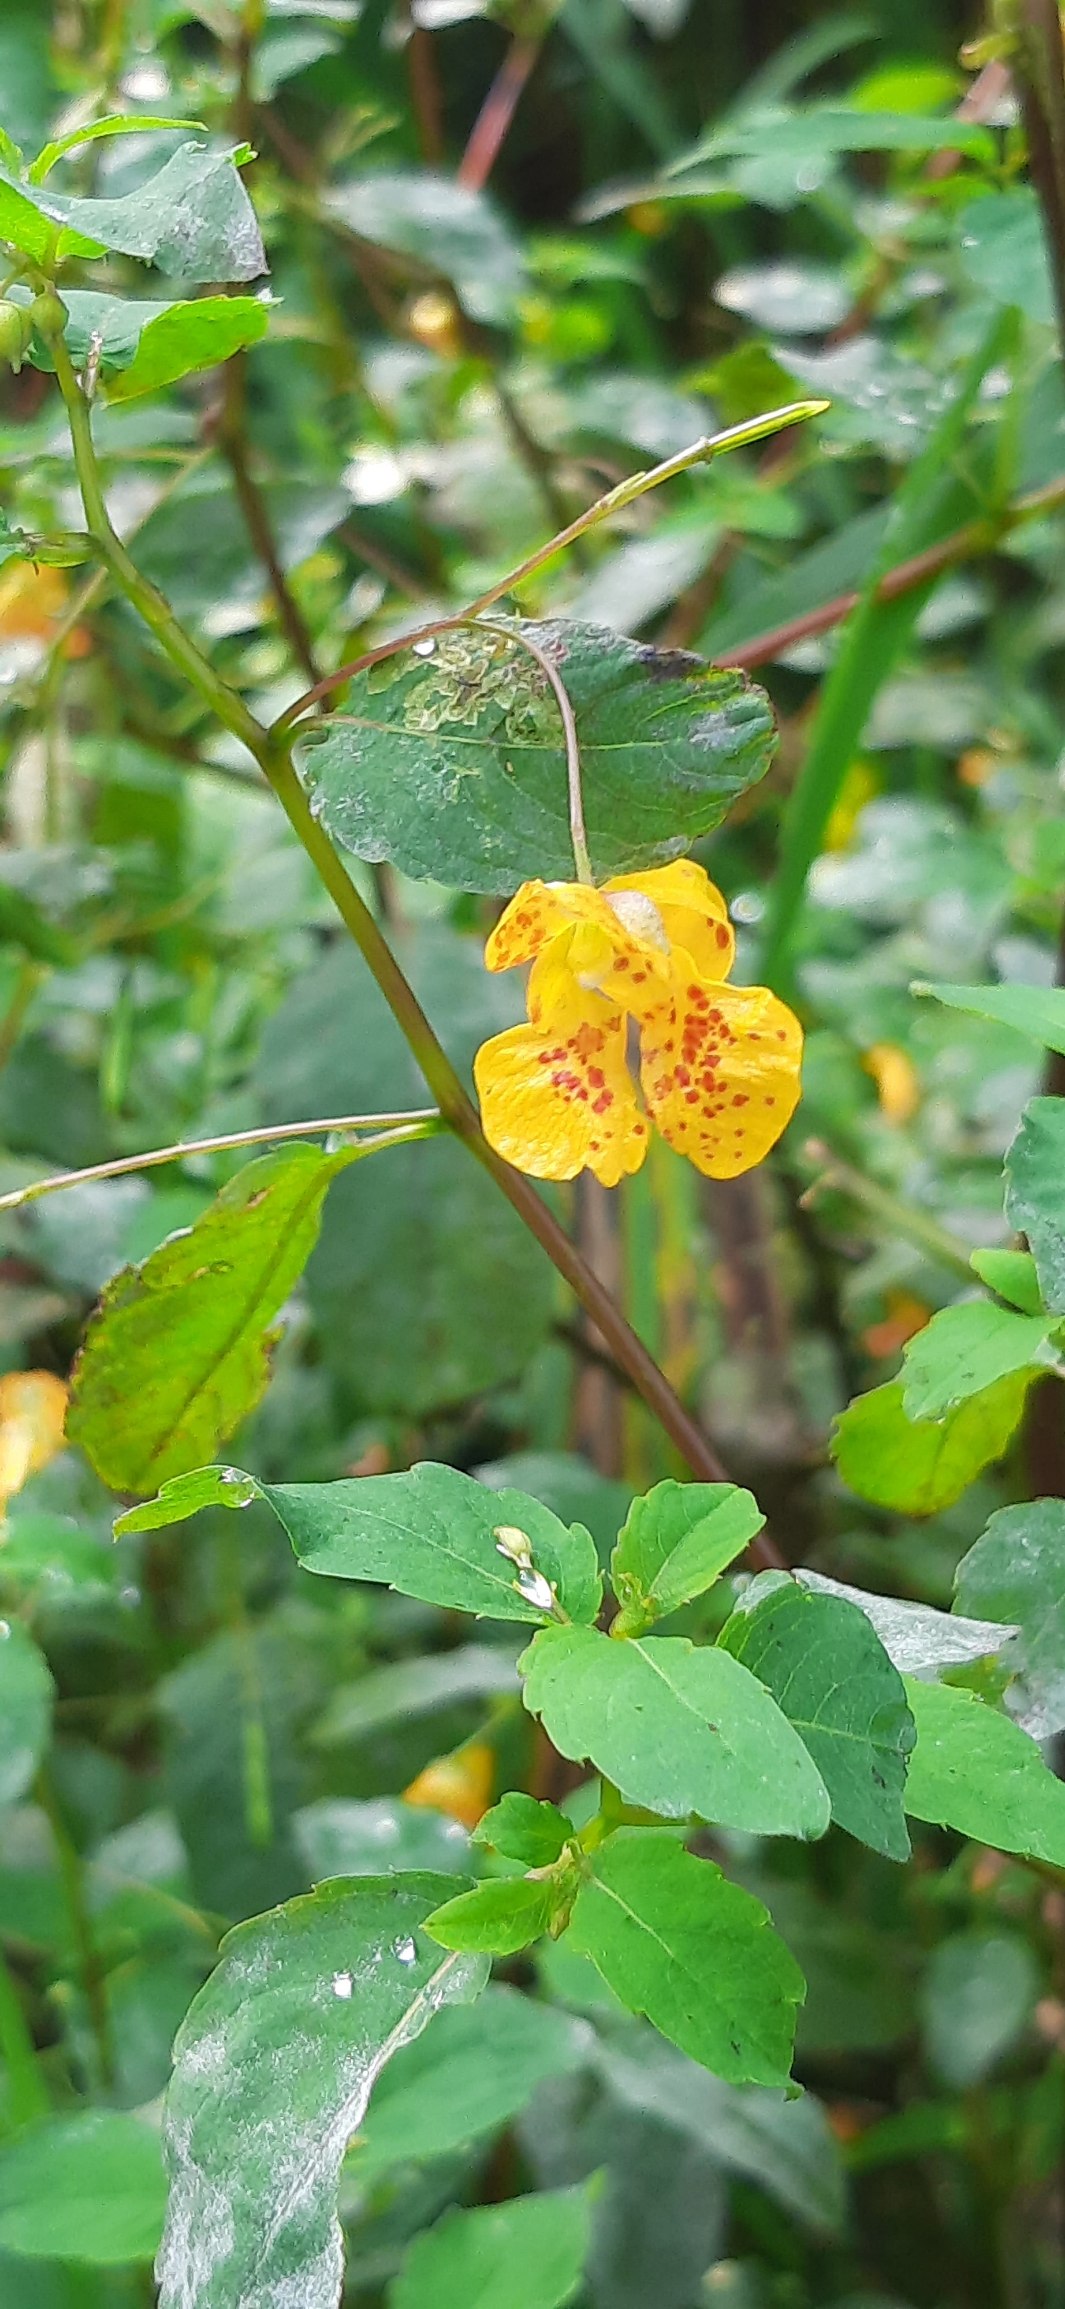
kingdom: Plantae
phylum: Tracheophyta
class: Magnoliopsida
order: Ericales
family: Balsaminaceae
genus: Impatiens
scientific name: Impatiens capensis
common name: Orange-balsamin
